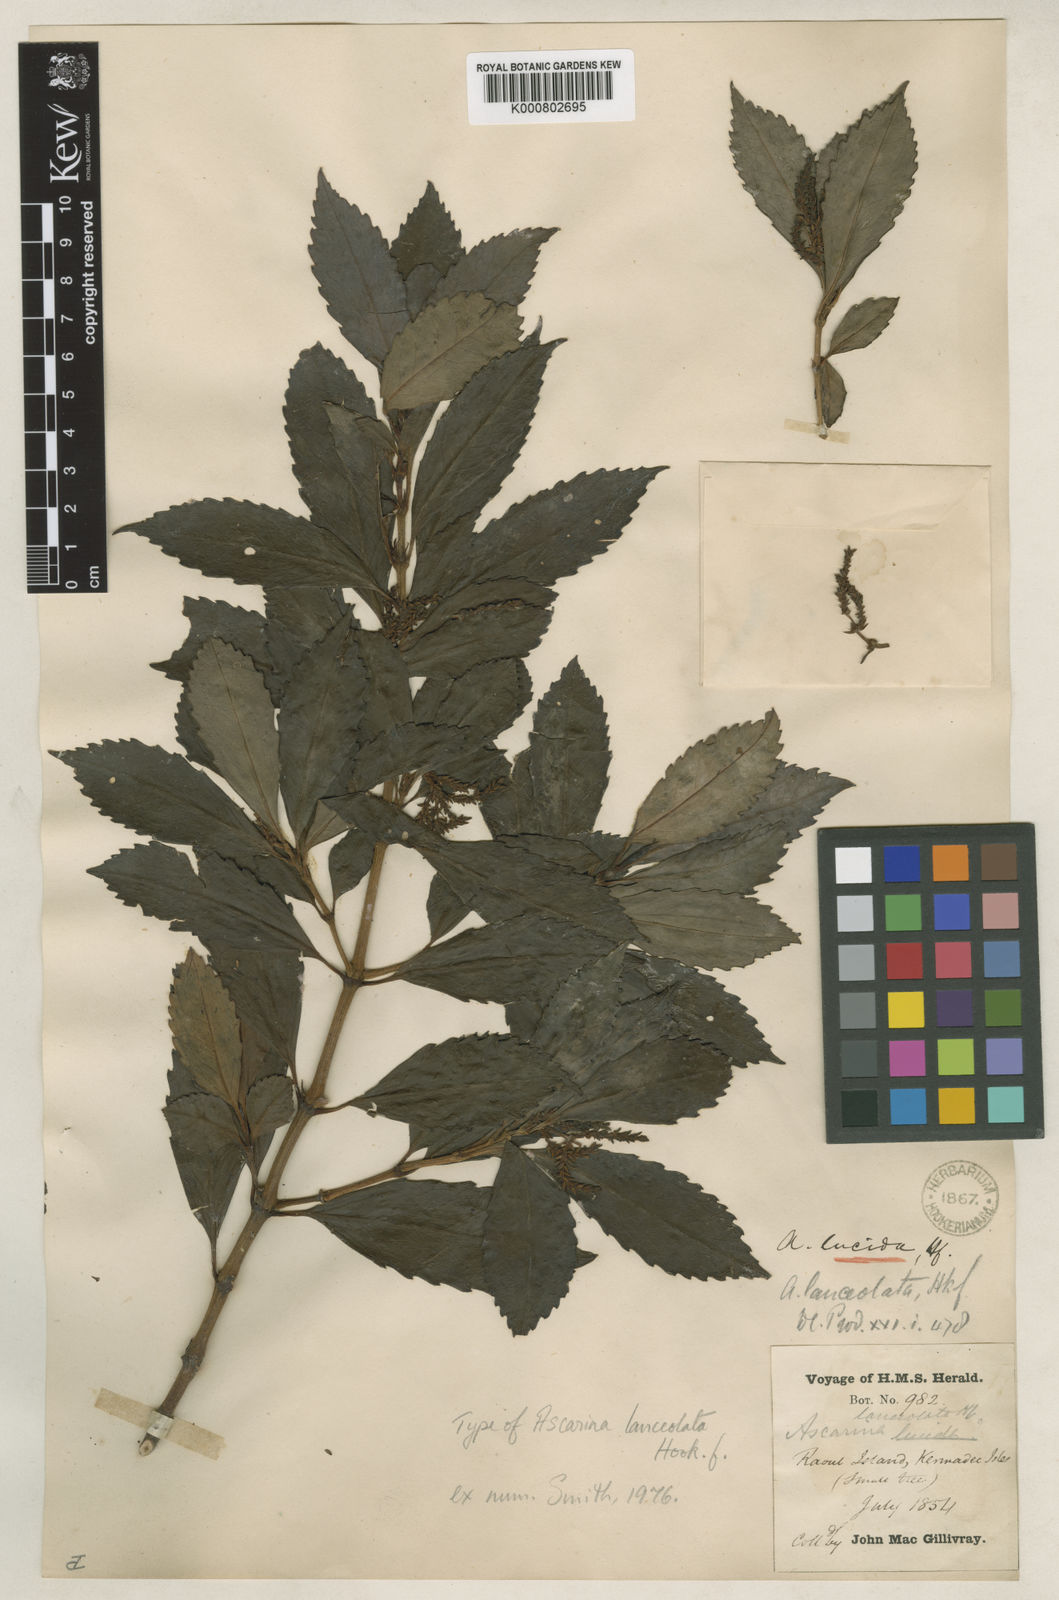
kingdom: Plantae
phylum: Tracheophyta
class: Magnoliopsida
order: Chloranthales
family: Chloranthaceae
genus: Ascarina
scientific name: Ascarina lucida
